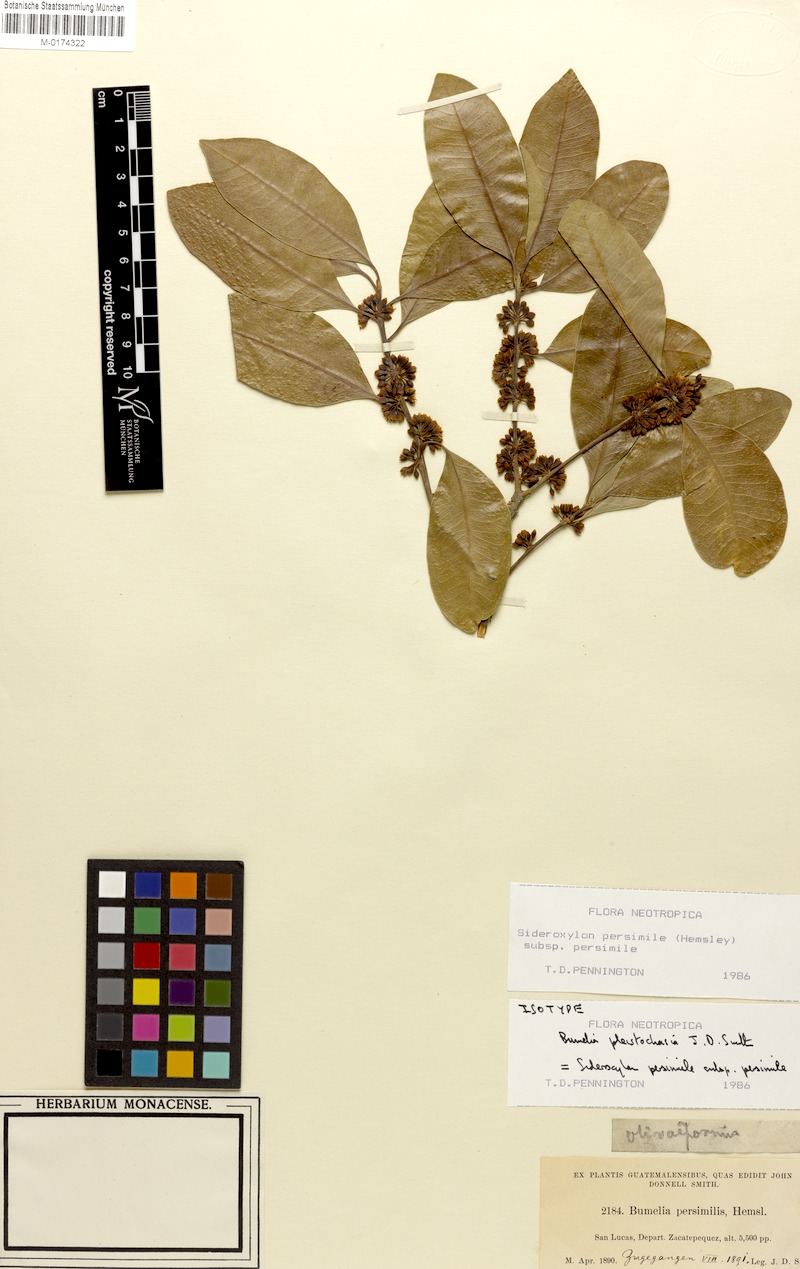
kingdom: Plantae
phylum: Tracheophyta
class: Magnoliopsida
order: Ericales
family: Sapotaceae
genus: Sideroxylon
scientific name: Sideroxylon persimile
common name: Bumelia
